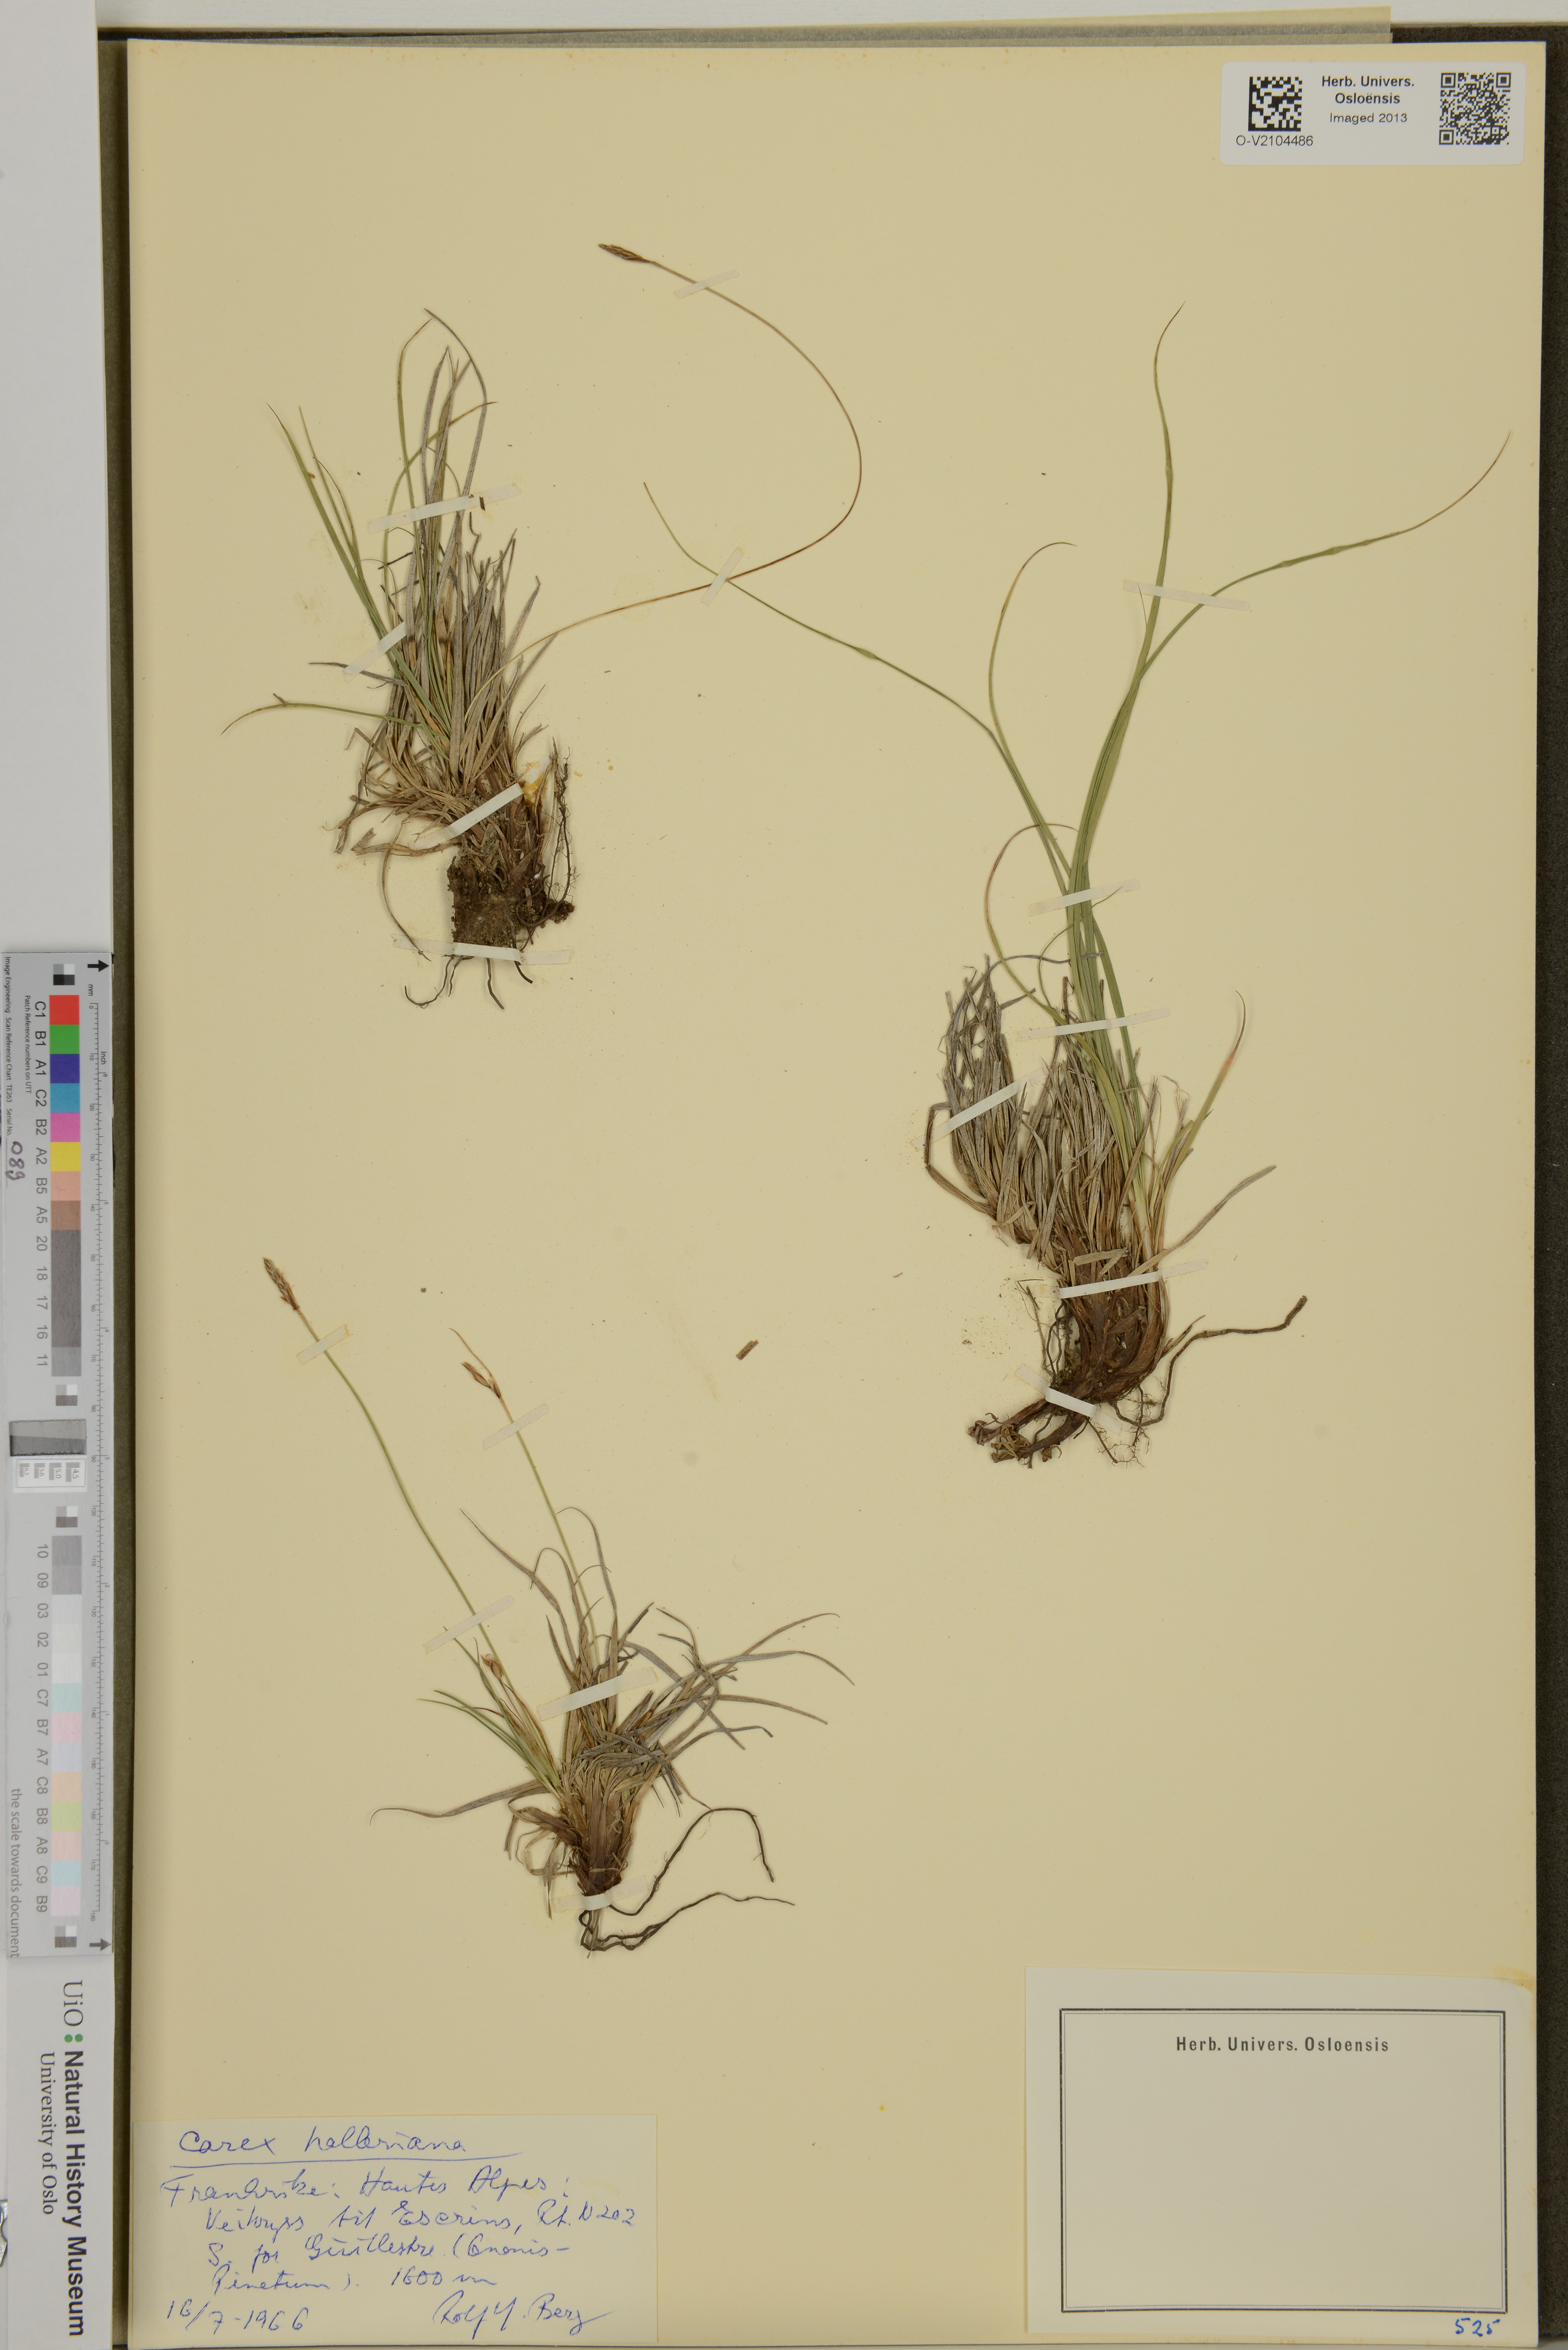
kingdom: Plantae
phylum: Tracheophyta
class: Liliopsida
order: Poales
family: Cyperaceae
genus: Carex
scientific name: Carex halleriana
